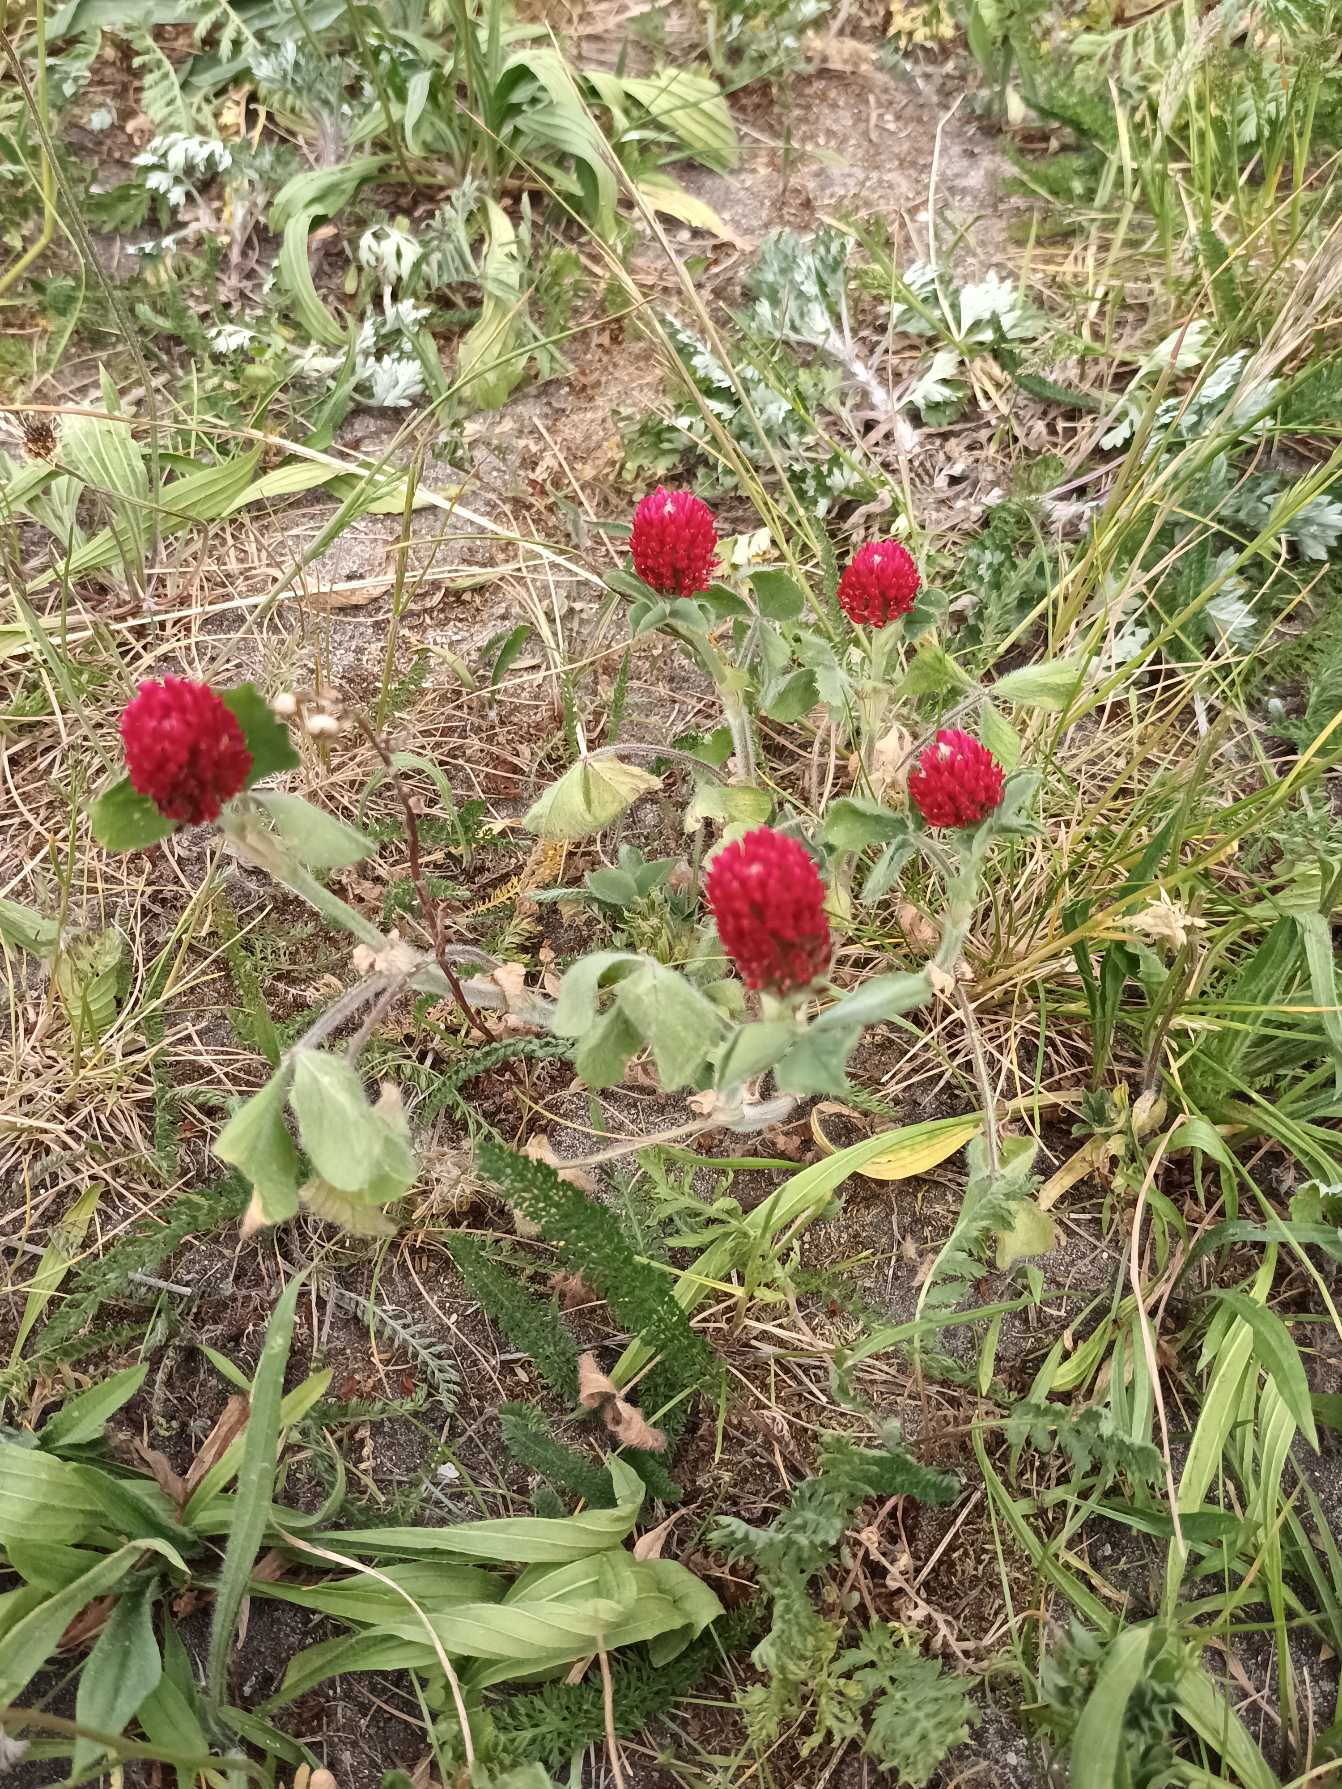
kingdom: Plantae
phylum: Tracheophyta
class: Magnoliopsida
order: Fabales
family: Fabaceae
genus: Trifolium
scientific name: Trifolium incarnatum
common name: Blod-kløver
